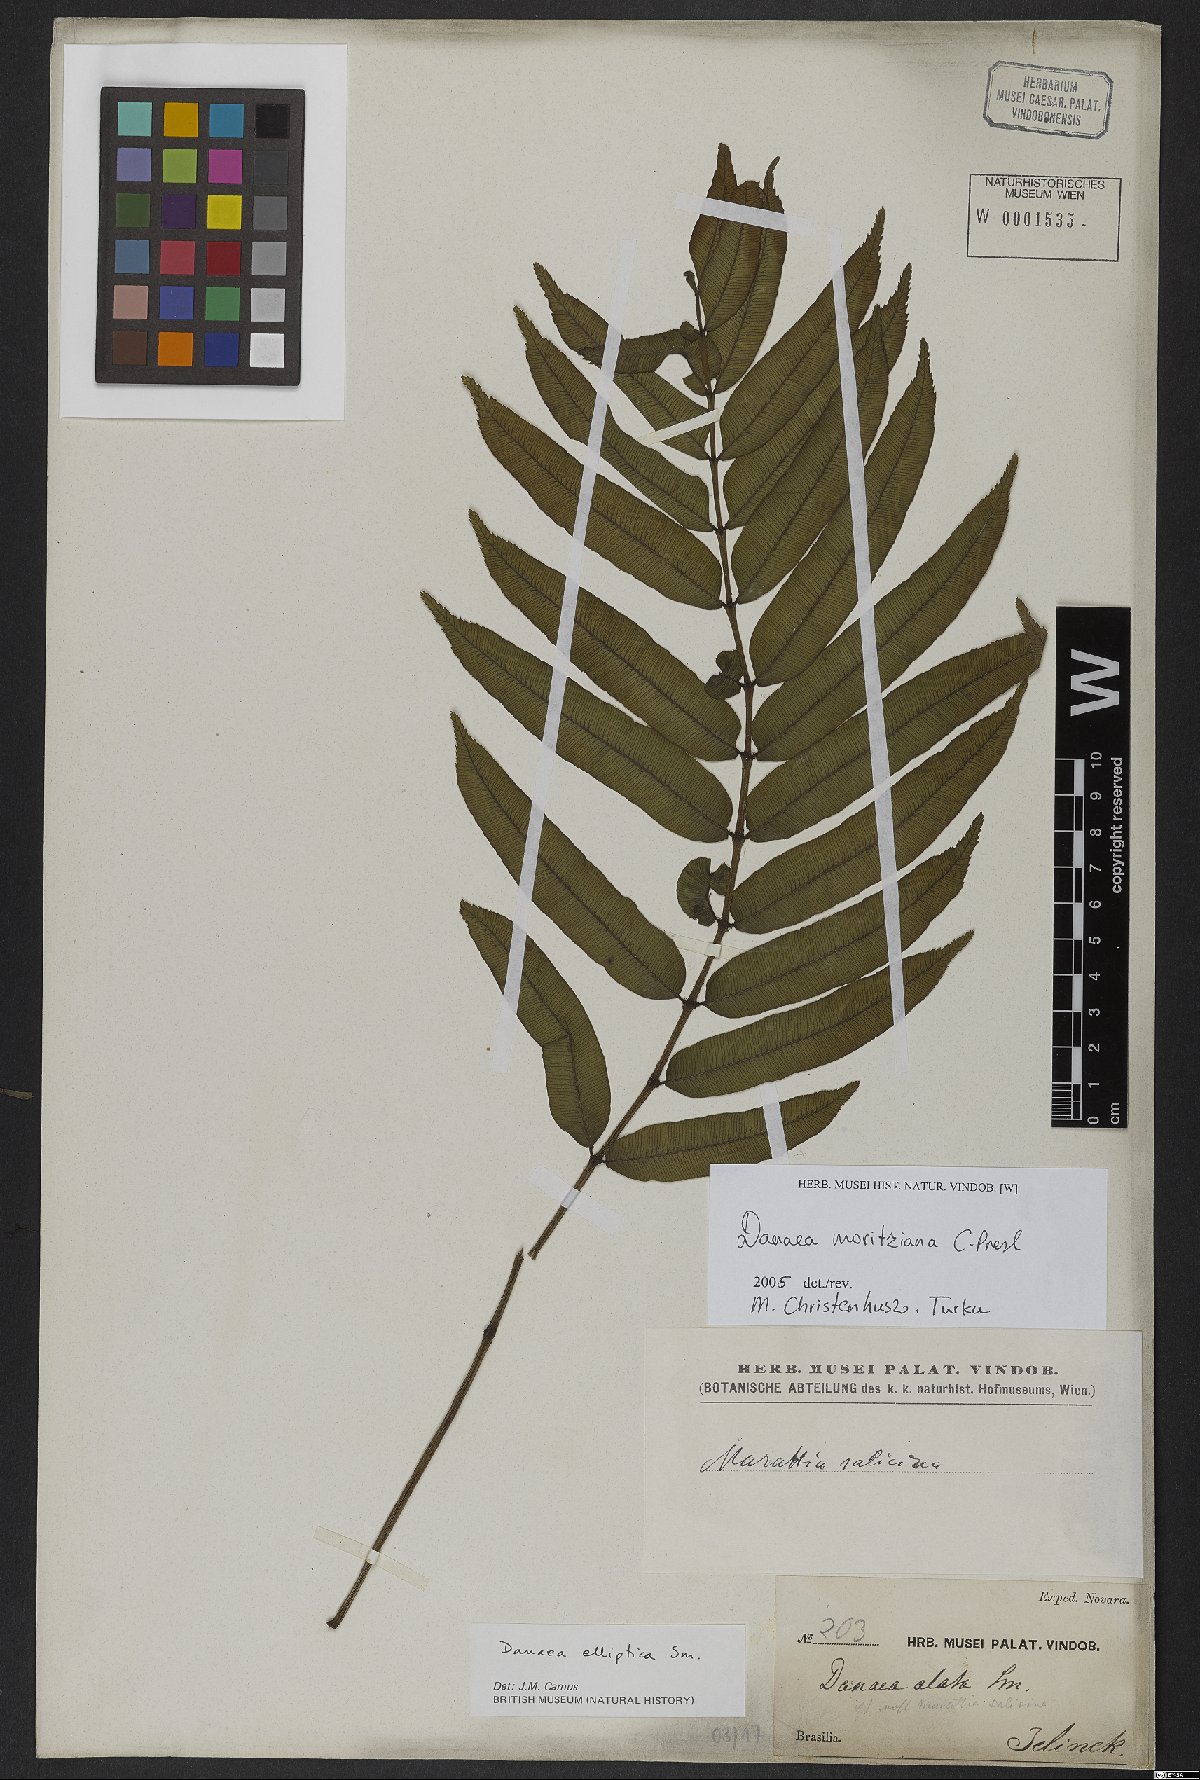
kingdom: Plantae
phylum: Tracheophyta
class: Polypodiopsida
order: Marattiales
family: Marattiaceae
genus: Danaea
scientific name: Danaea moritziana
